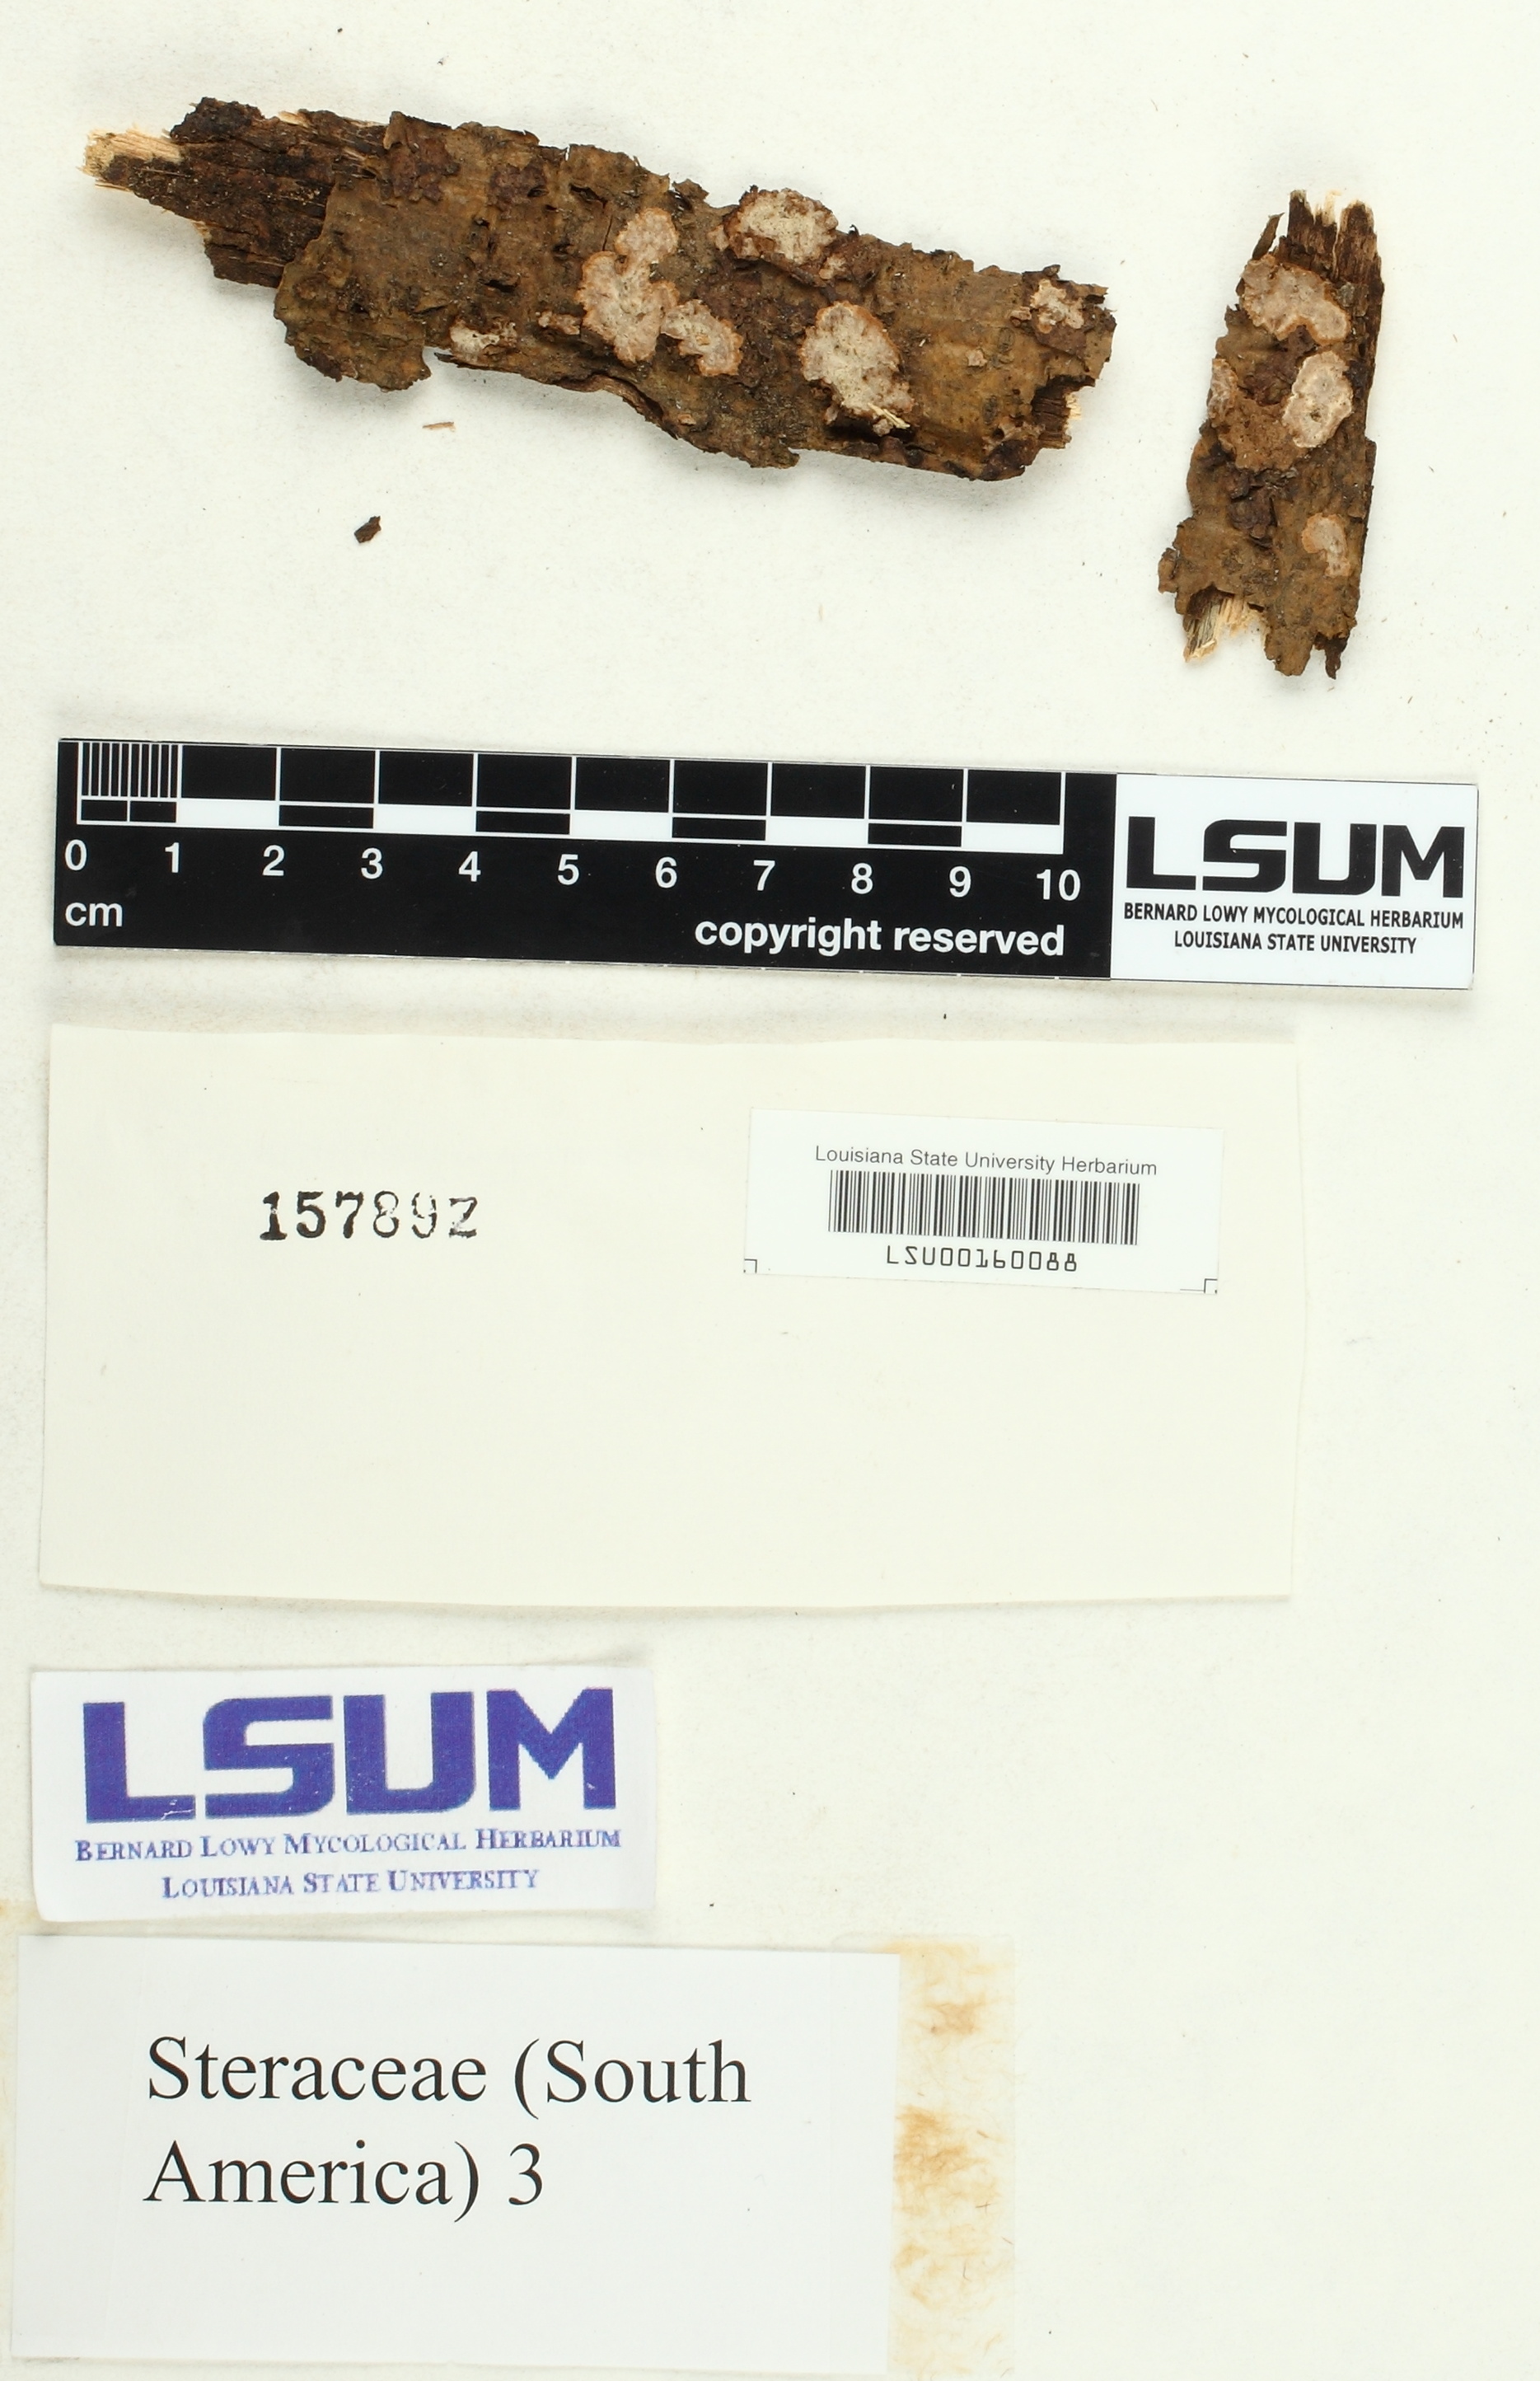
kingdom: Fungi
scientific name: Fungi
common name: Fungi
